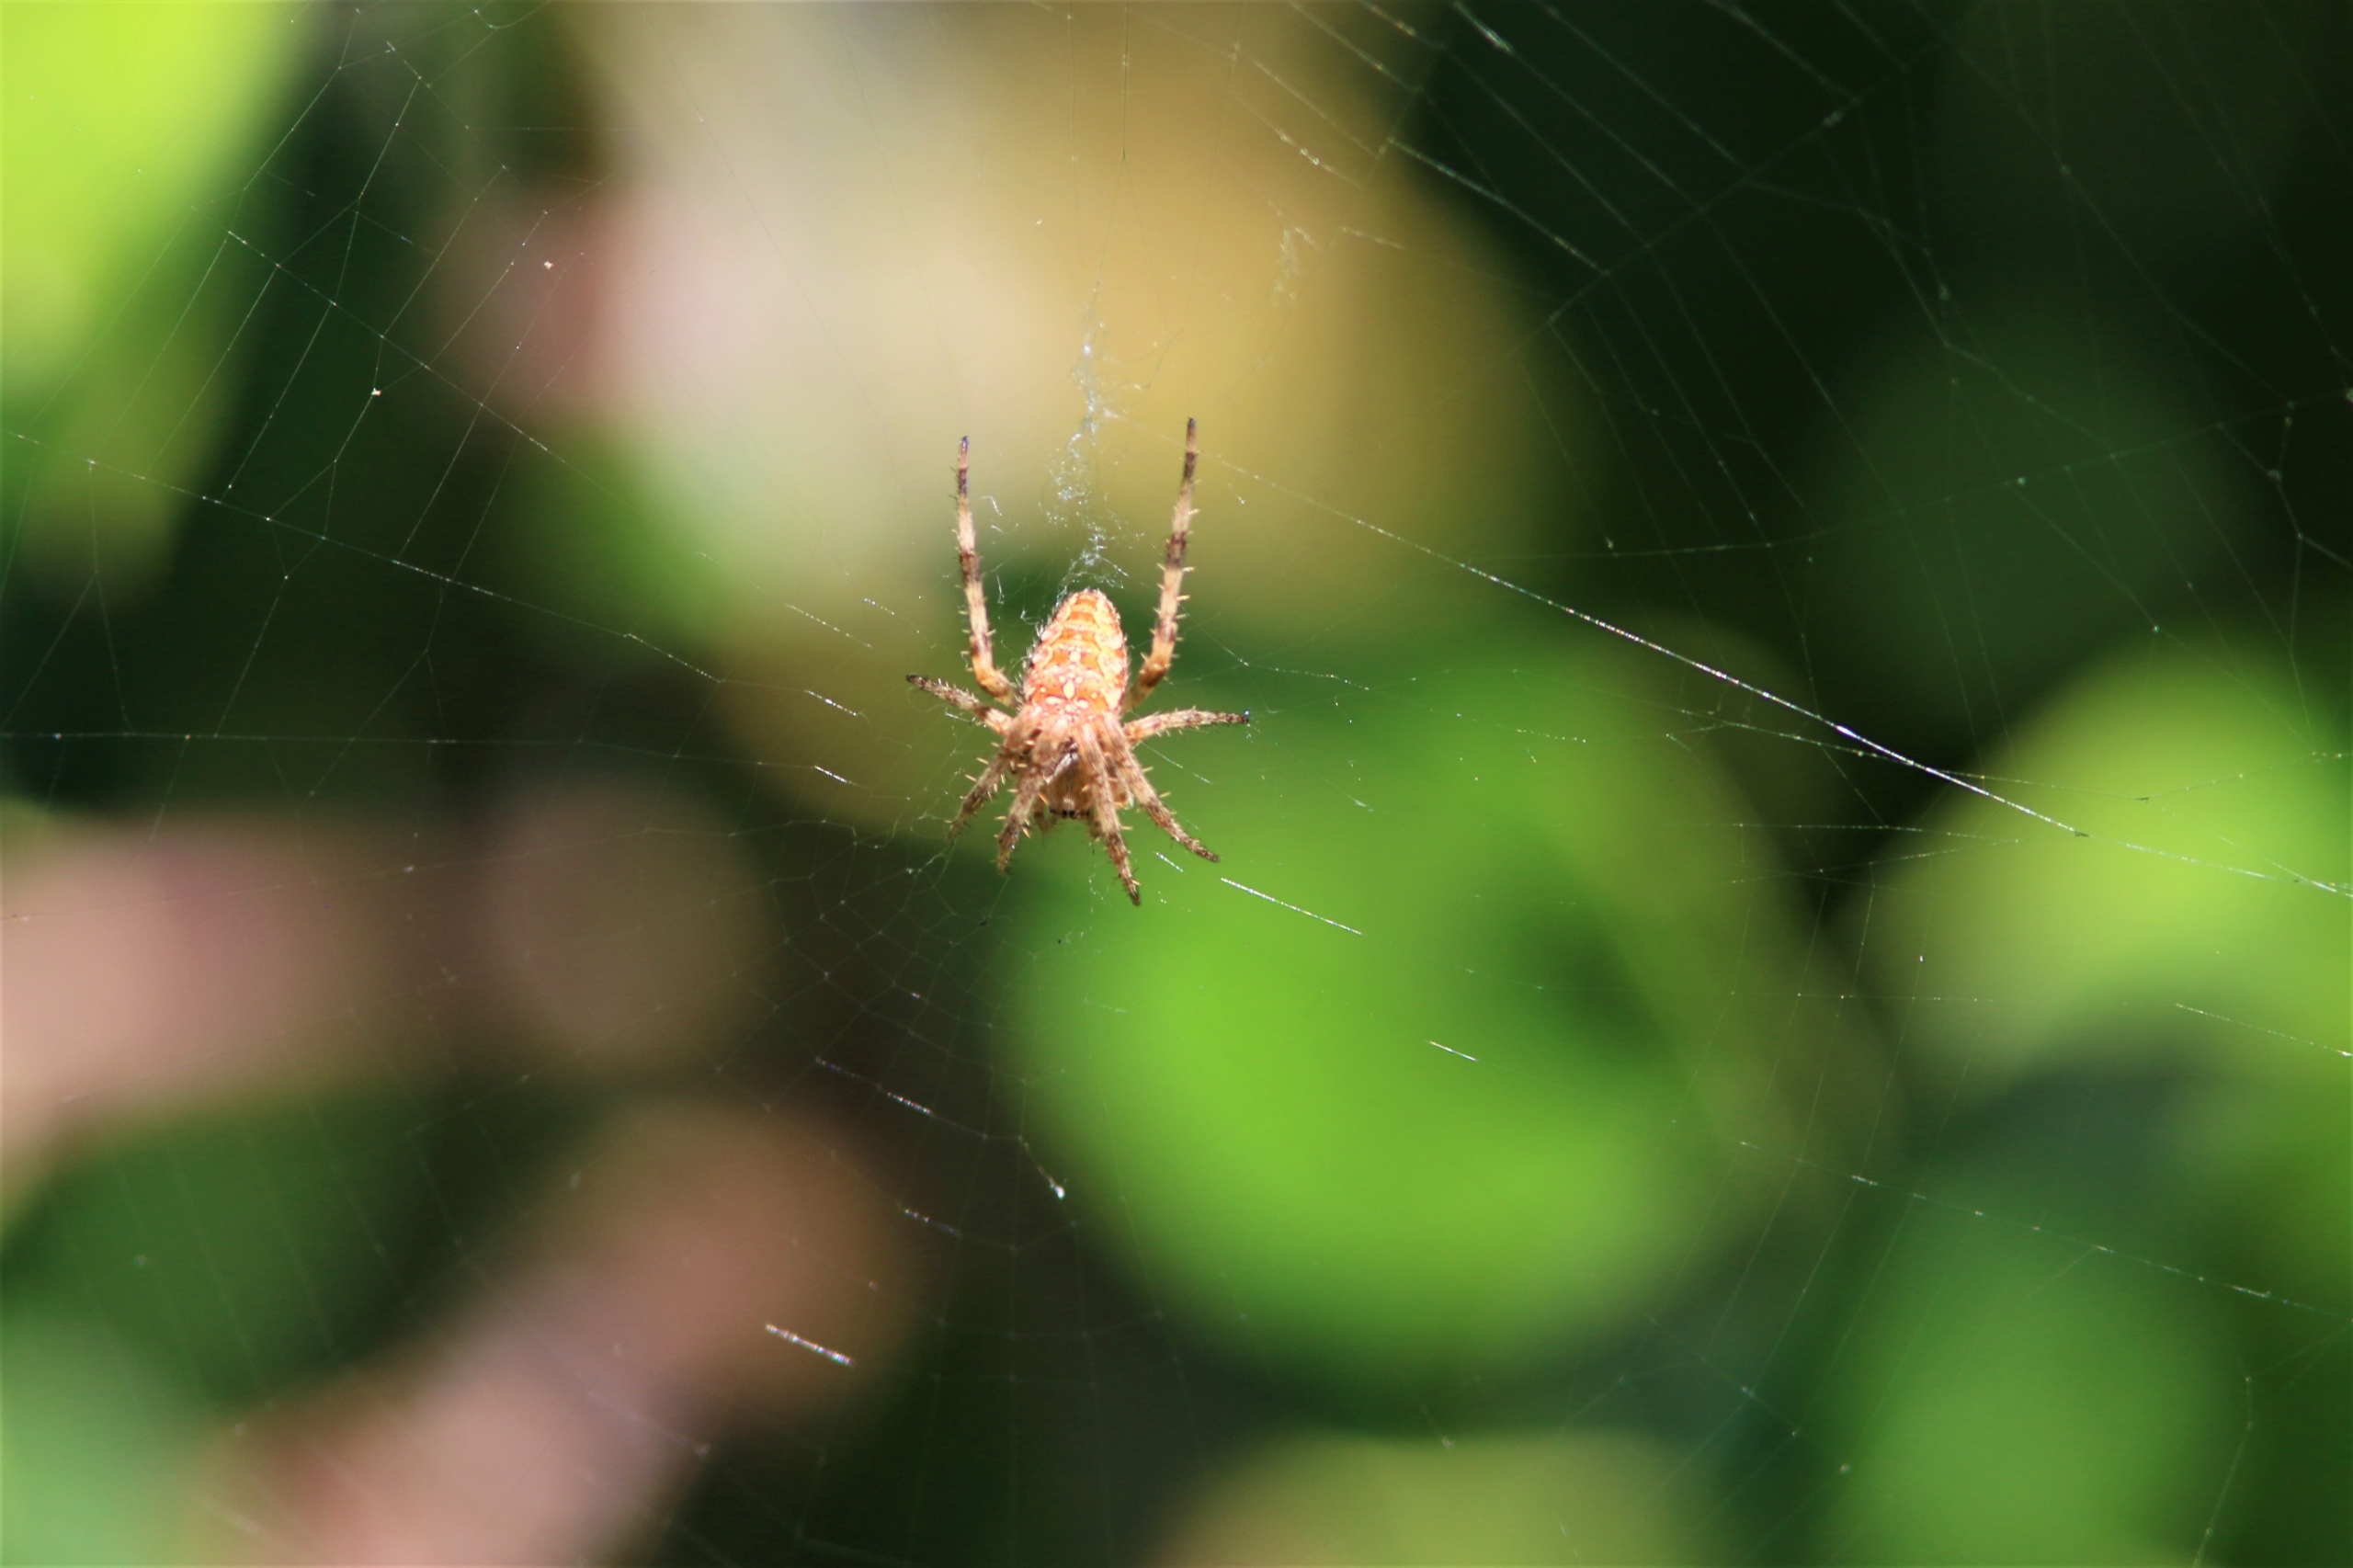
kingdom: Animalia
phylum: Arthropoda
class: Arachnida
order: Araneae
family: Araneidae
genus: Araneus
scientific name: Araneus diadematus
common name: Korsedderkop
